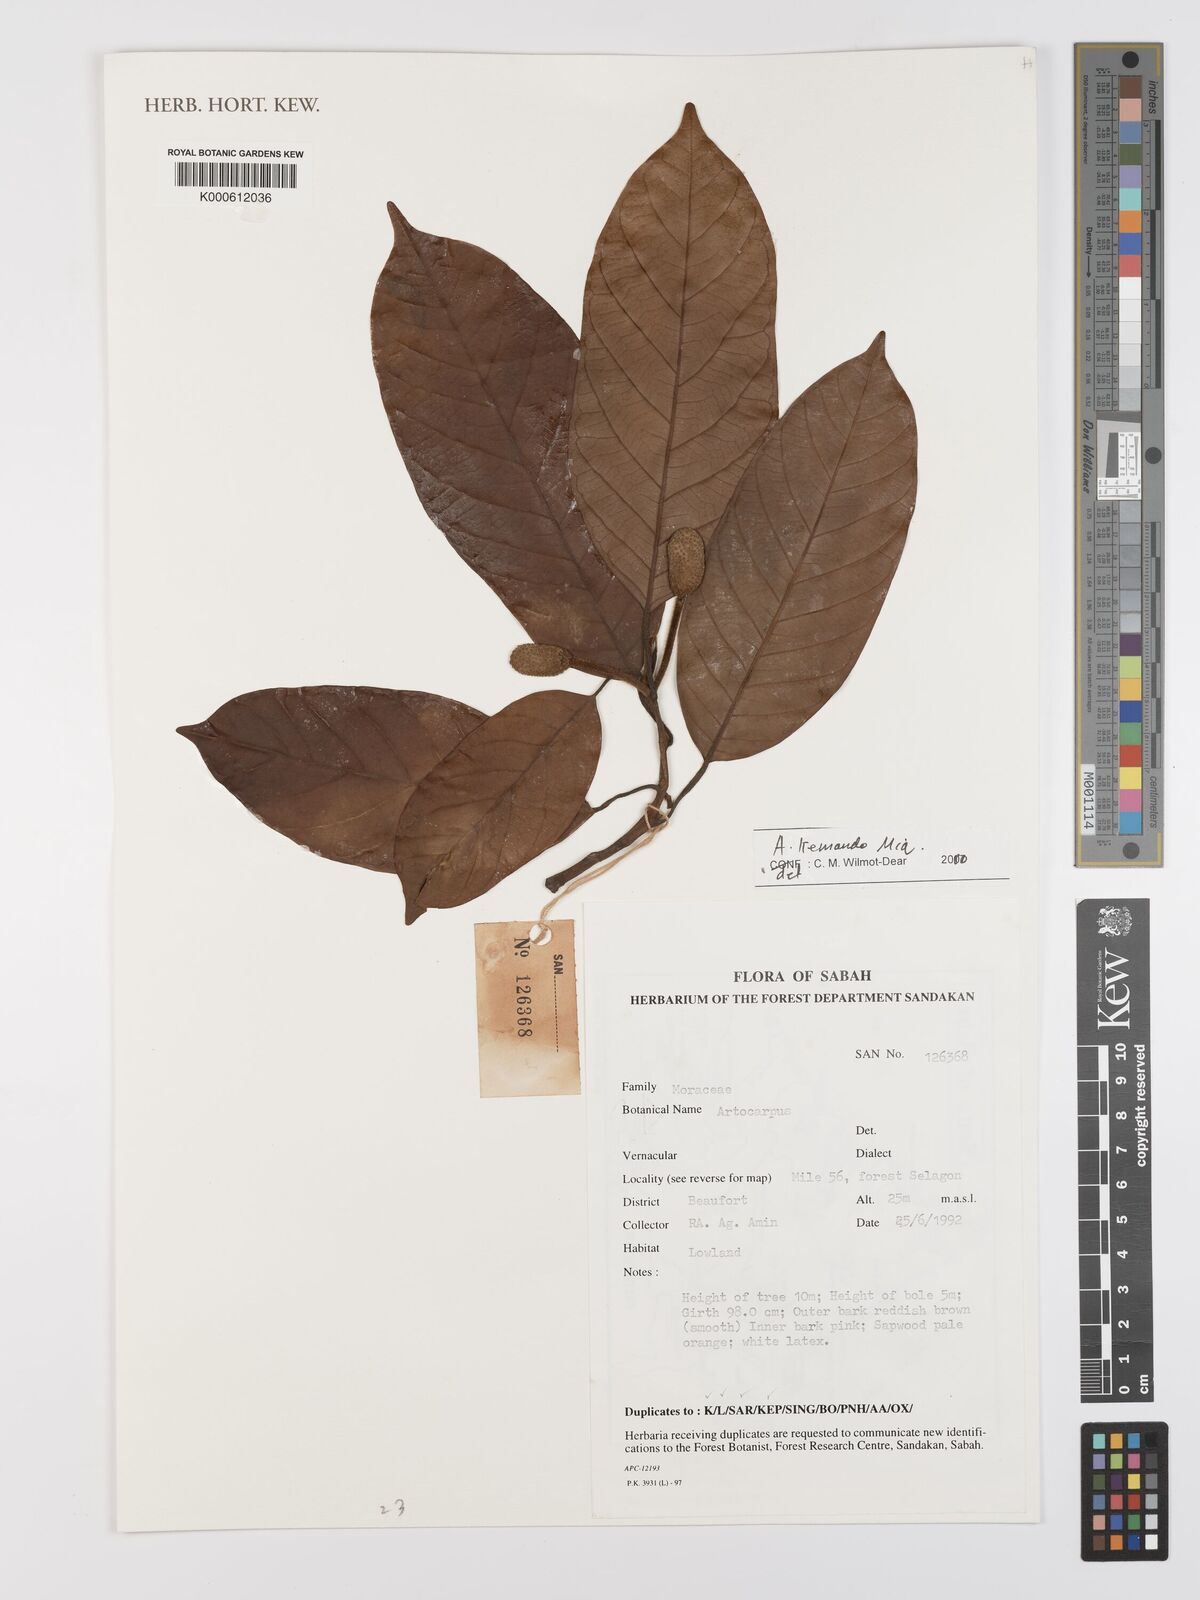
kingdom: Plantae
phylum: Tracheophyta
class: Magnoliopsida
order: Rosales
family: Moraceae
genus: Artocarpus
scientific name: Artocarpus kemando
